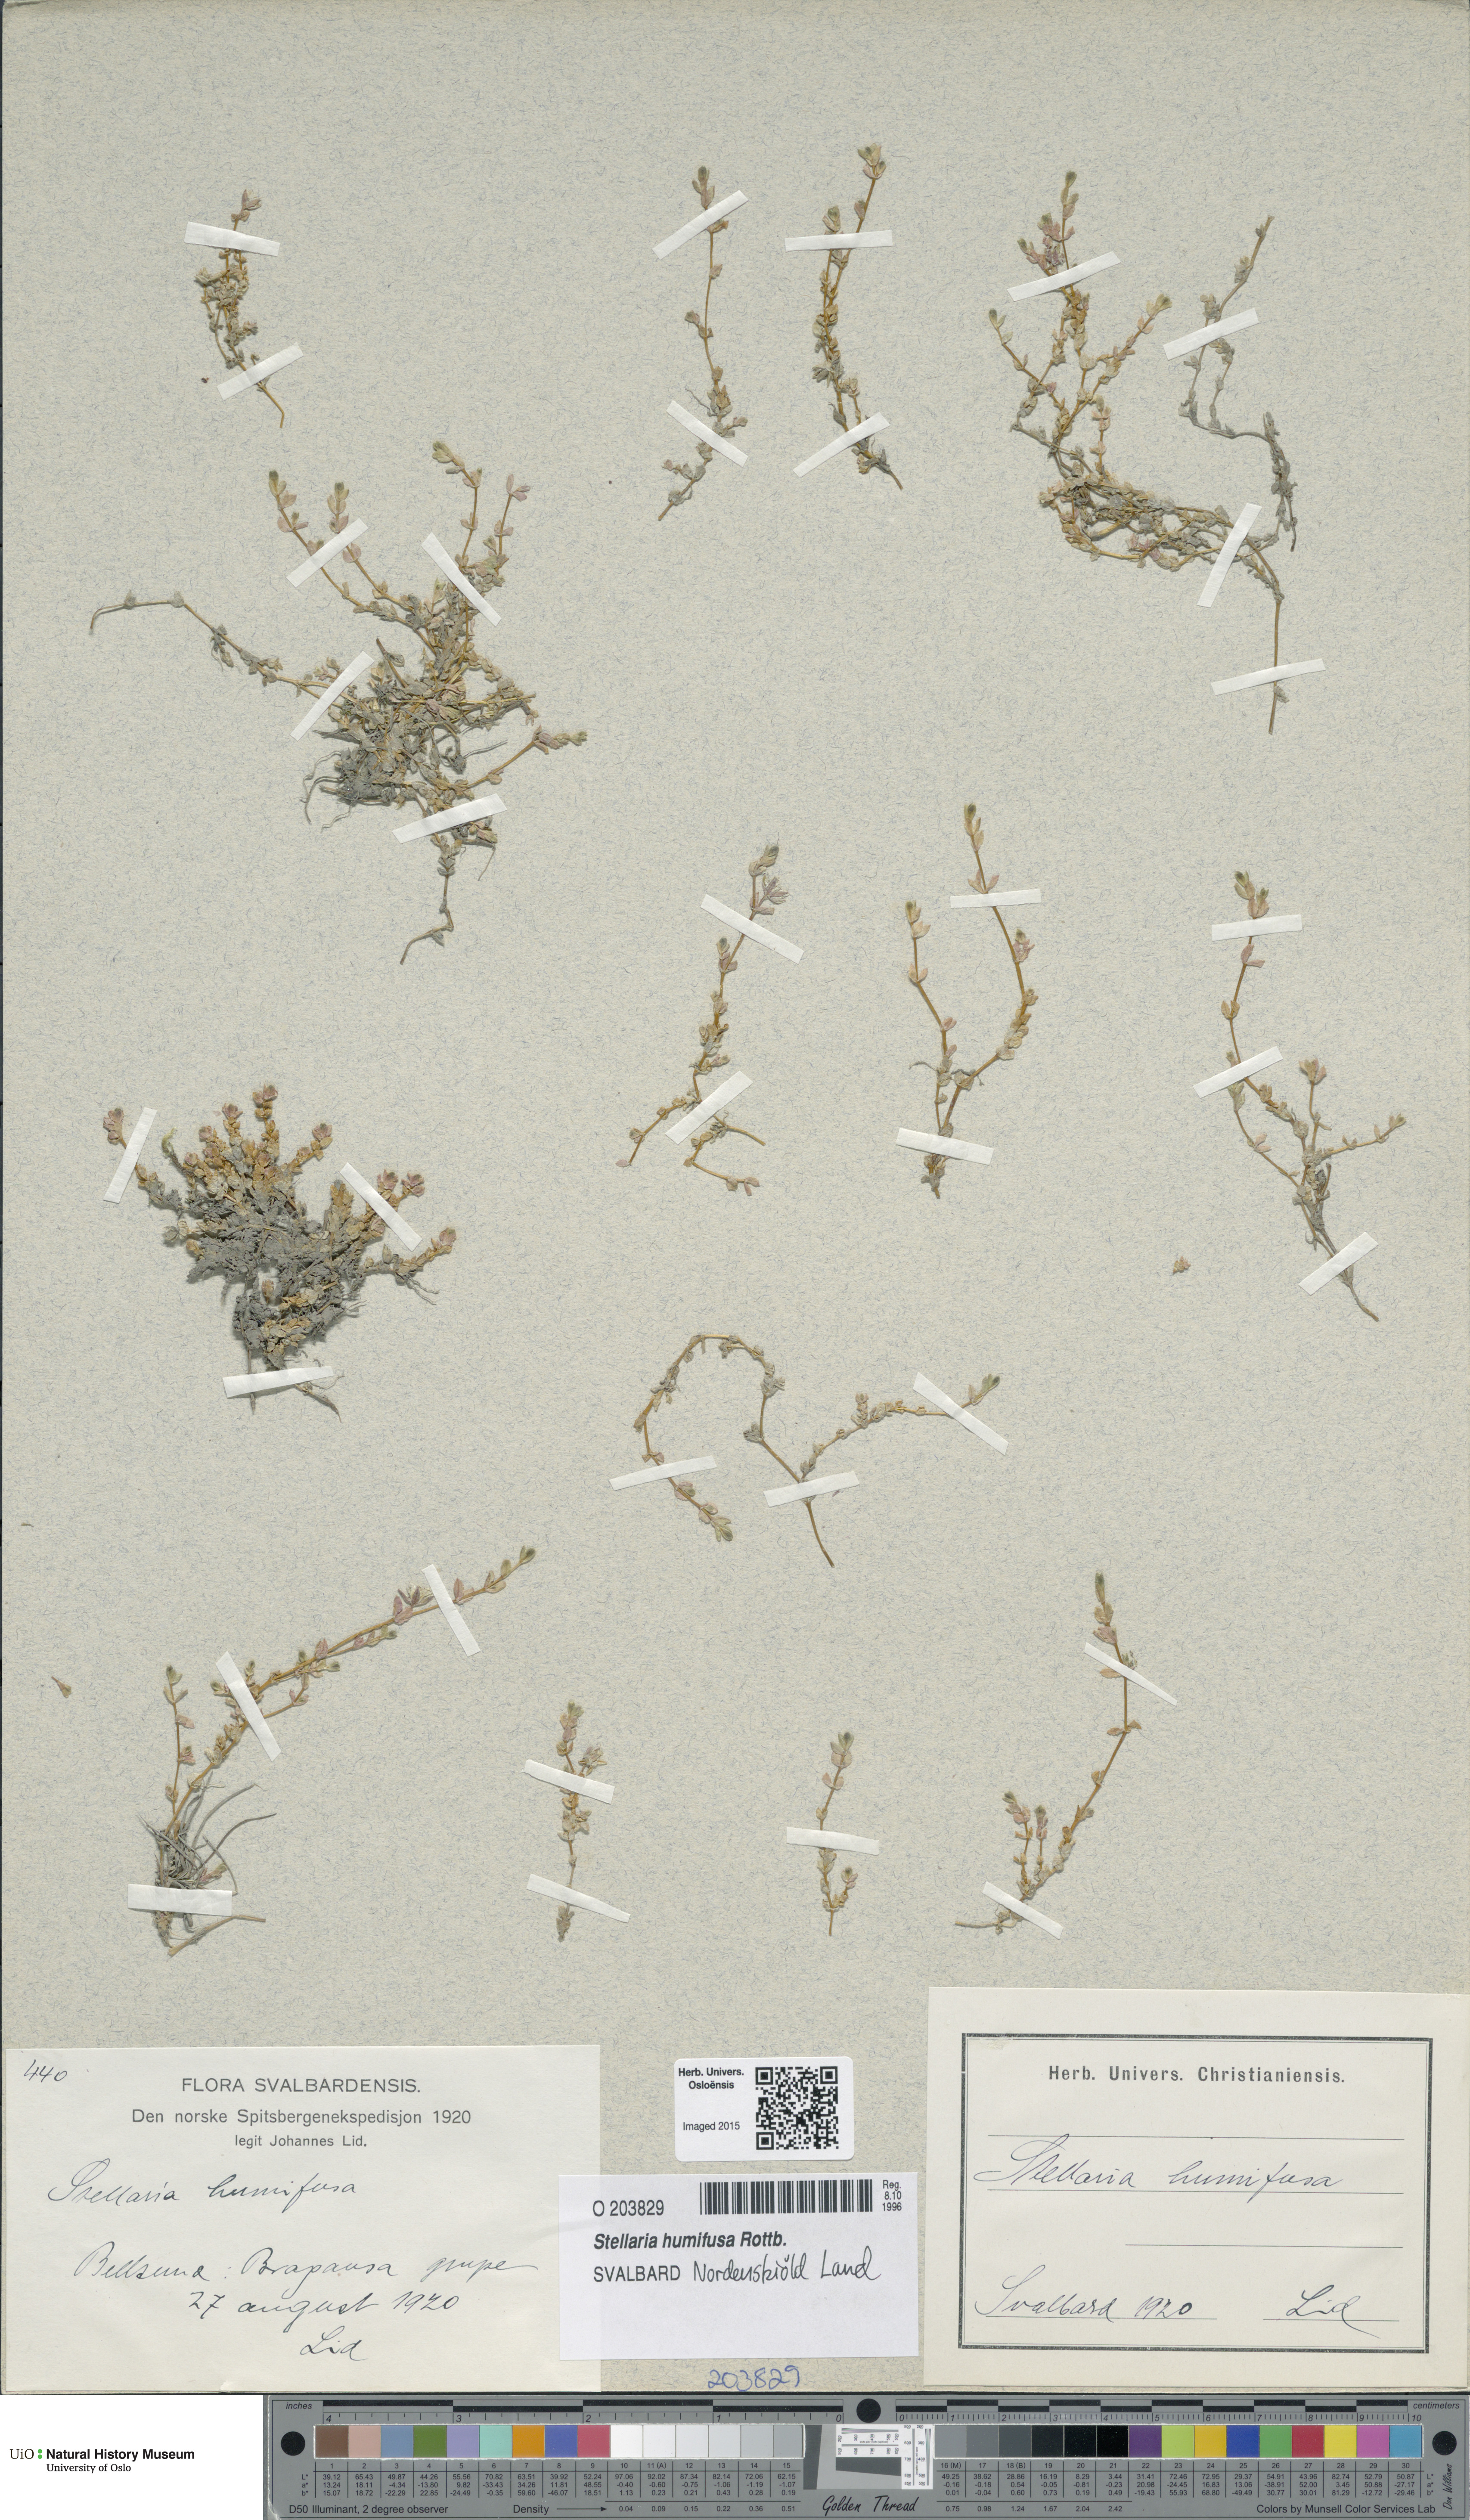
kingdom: Plantae
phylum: Tracheophyta
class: Magnoliopsida
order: Caryophyllales
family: Caryophyllaceae
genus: Stellaria
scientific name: Stellaria humifusa
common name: Creeping starwort
